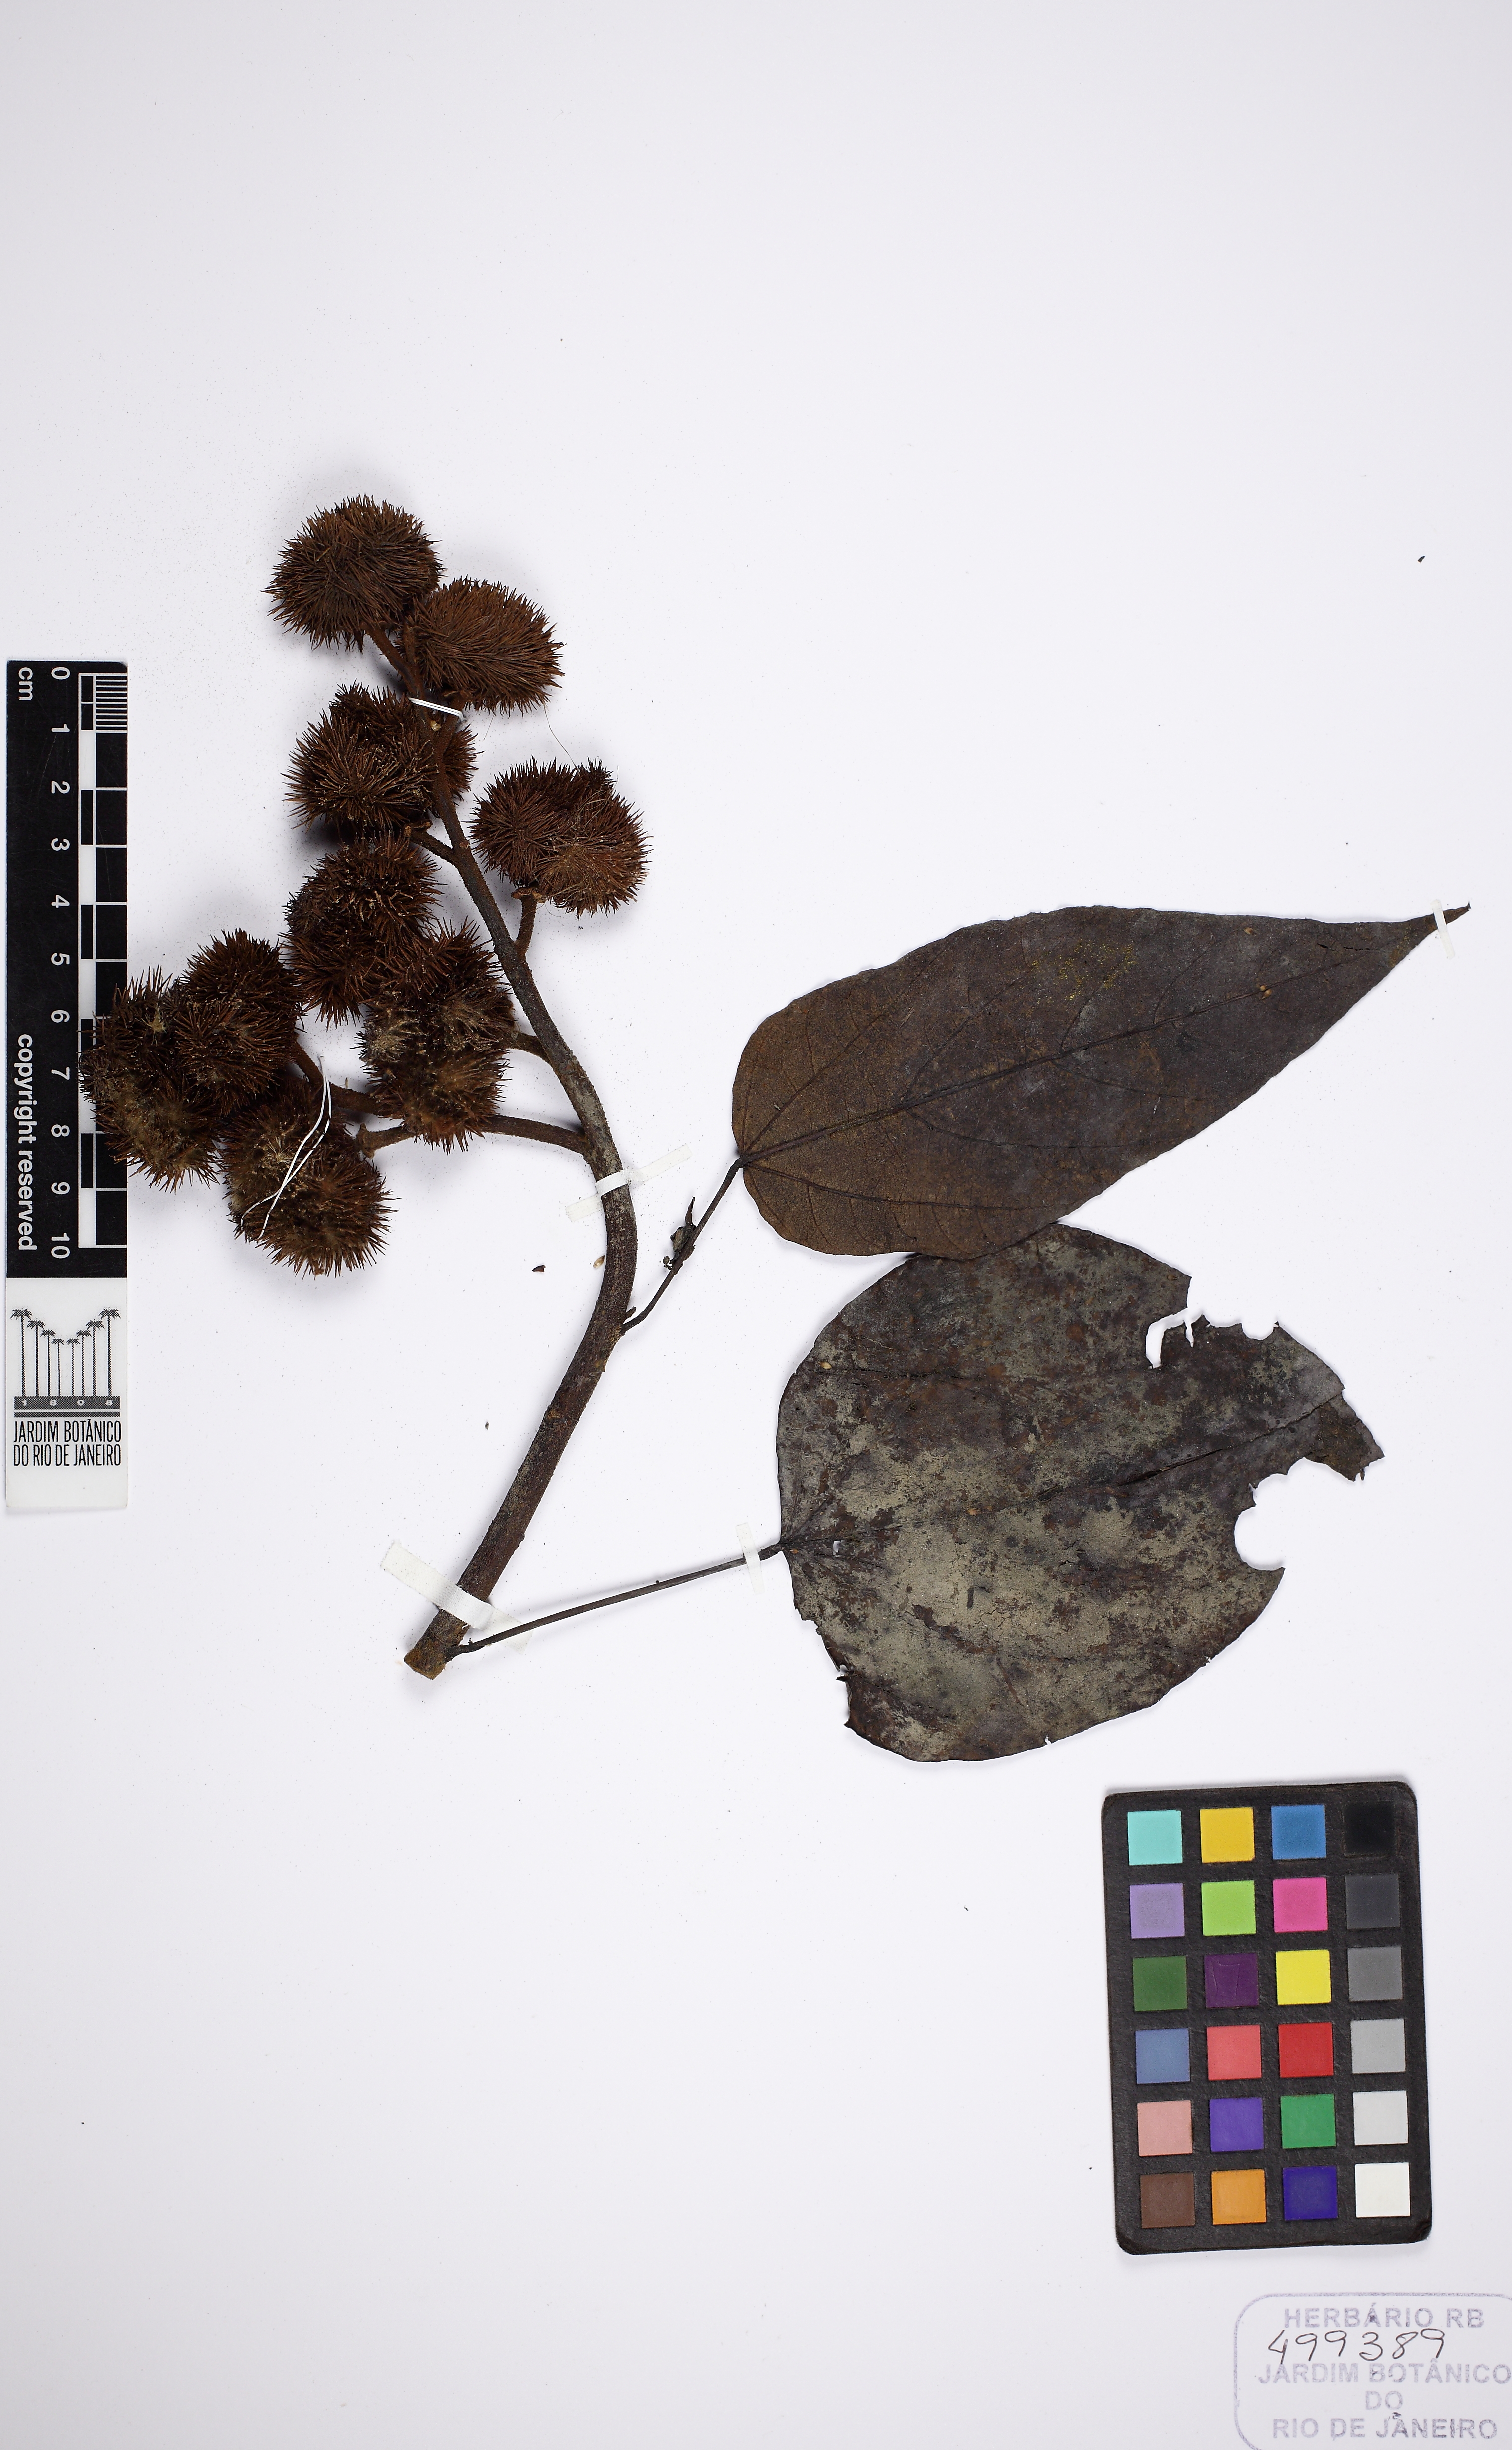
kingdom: Plantae
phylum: Tracheophyta
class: Magnoliopsida
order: Malvales
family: Bixaceae
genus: Bixa
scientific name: Bixa
